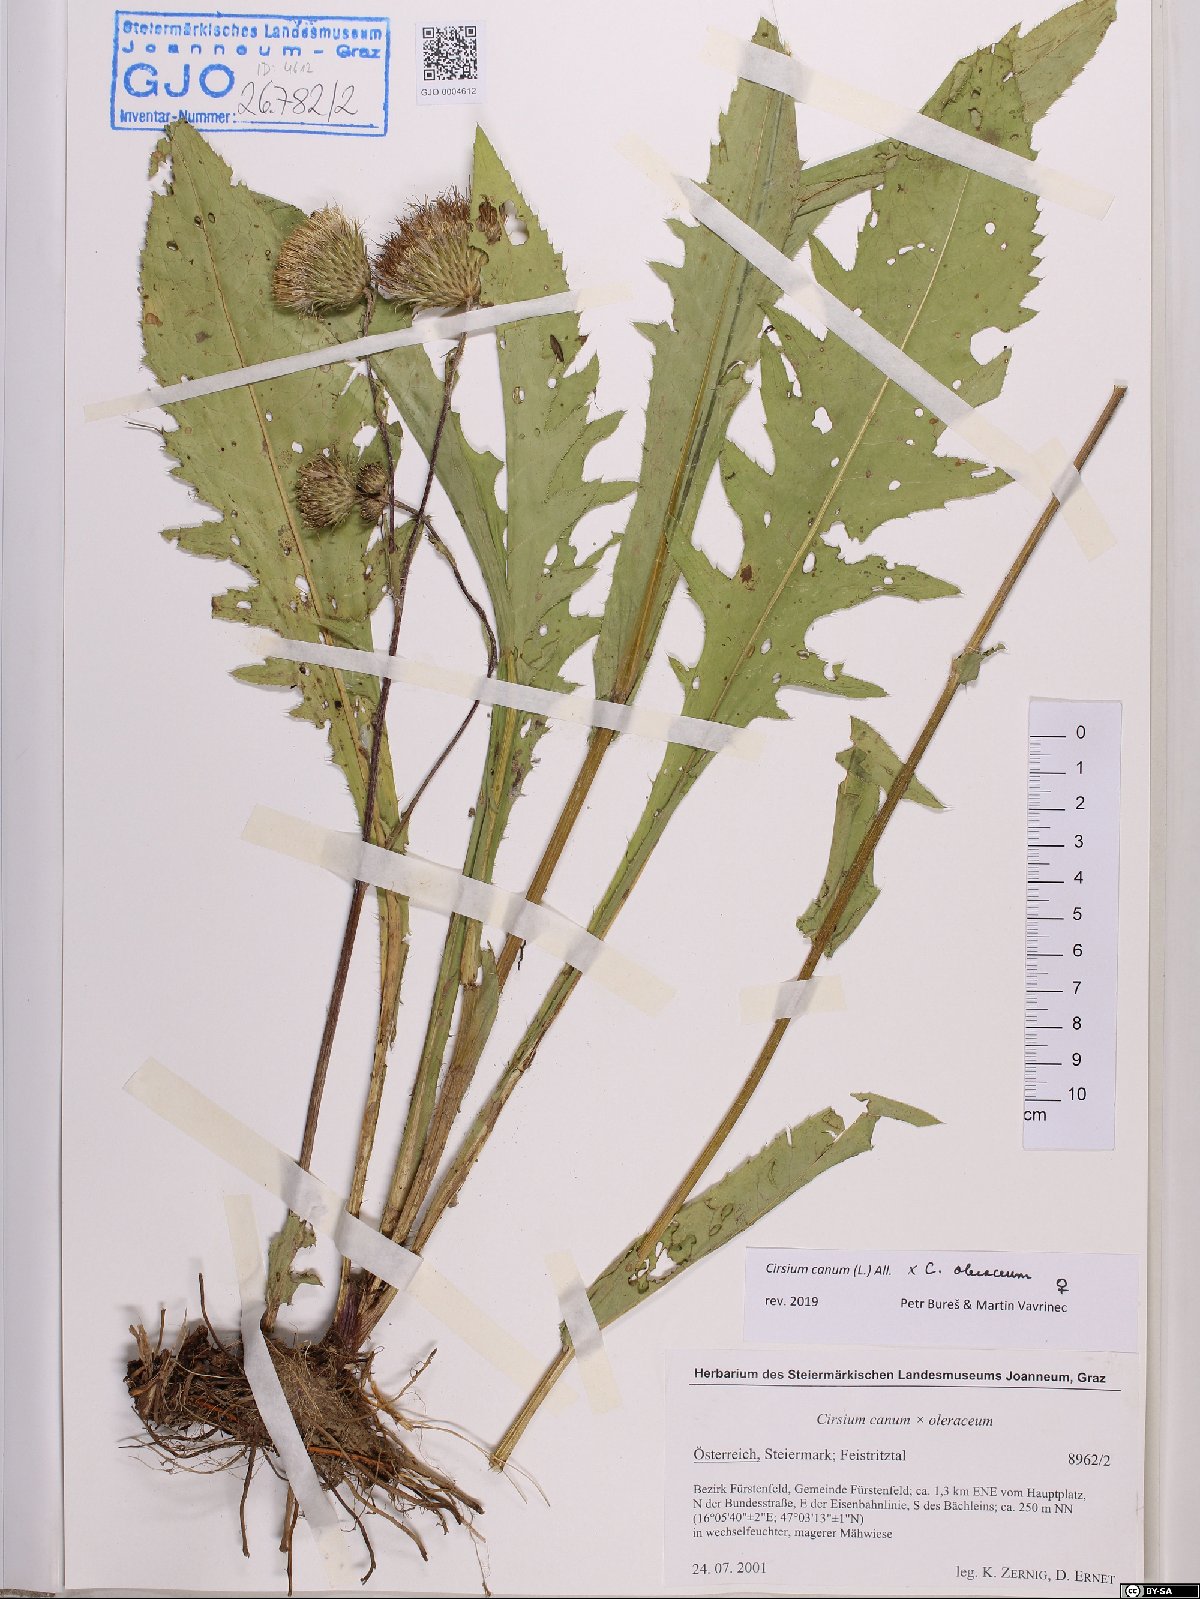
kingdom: Plantae
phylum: Tracheophyta
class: Magnoliopsida
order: Asterales
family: Asteraceae
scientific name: Asteraceae
